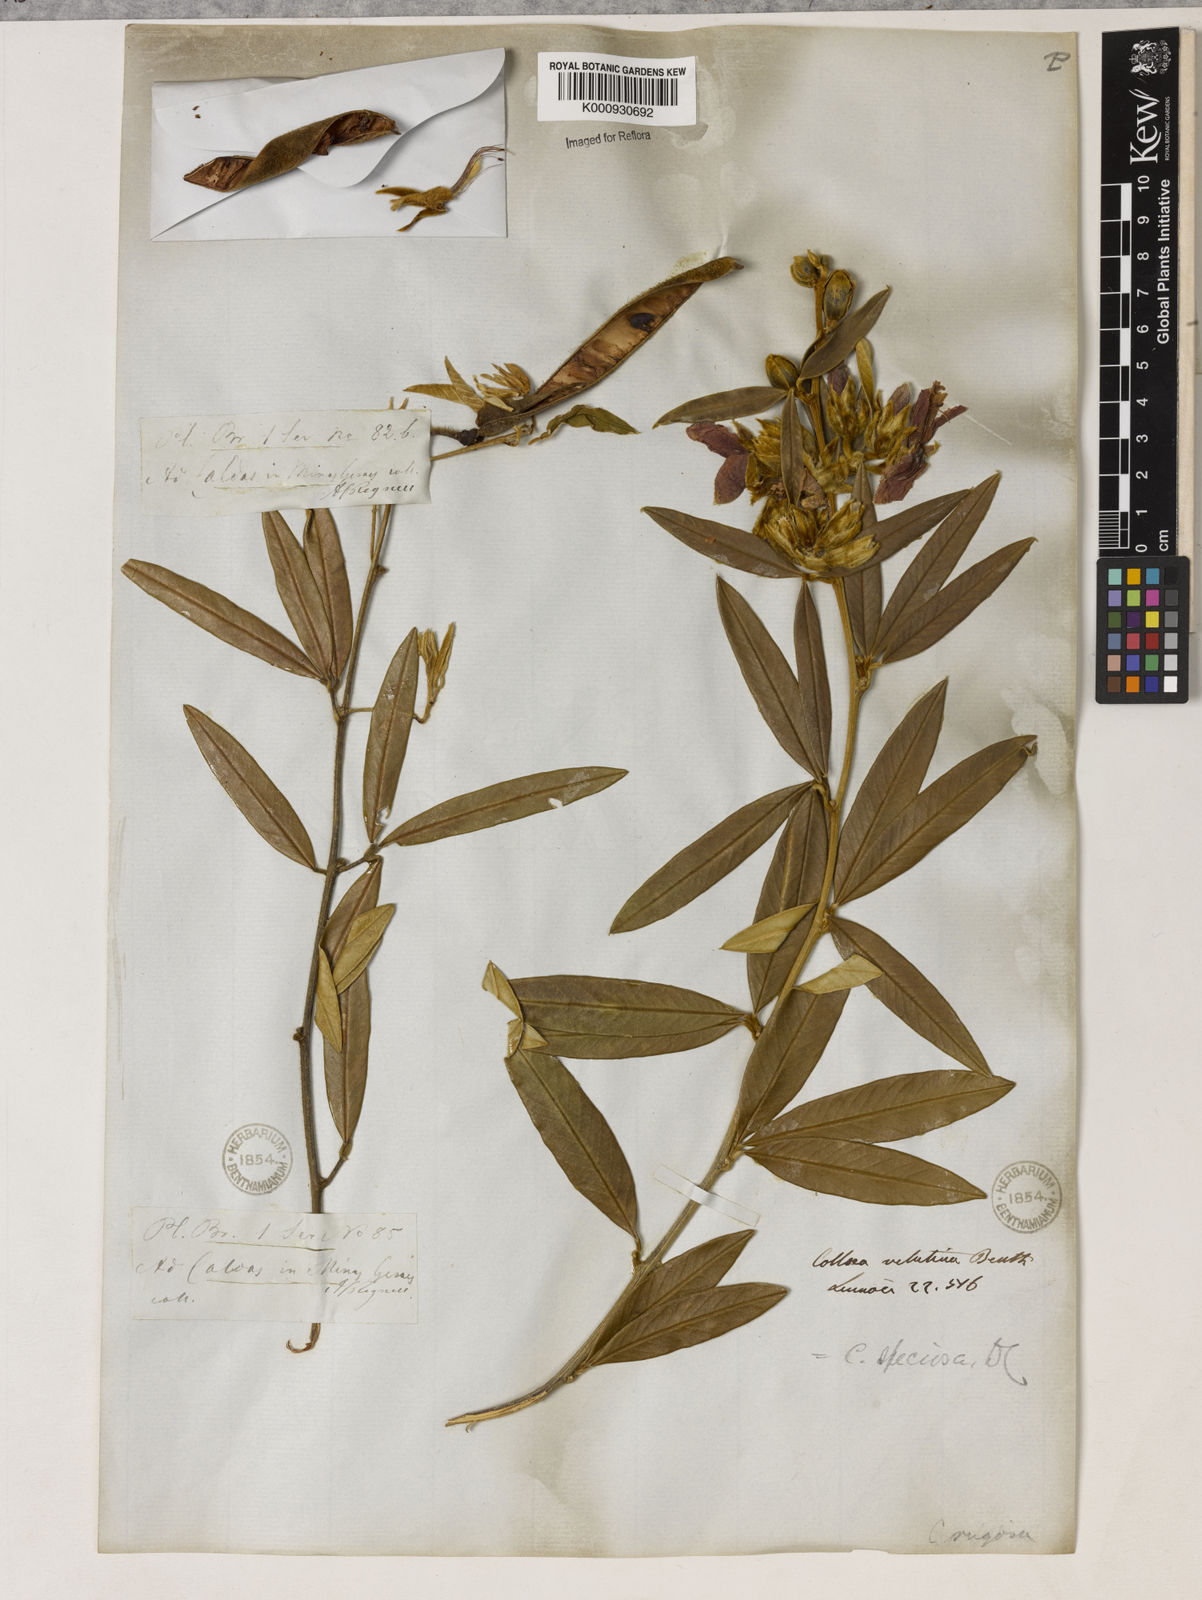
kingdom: Plantae
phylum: Tracheophyta
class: Magnoliopsida
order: Lamiales
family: Lamiaceae
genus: Coleus
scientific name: Coleus barbatus
